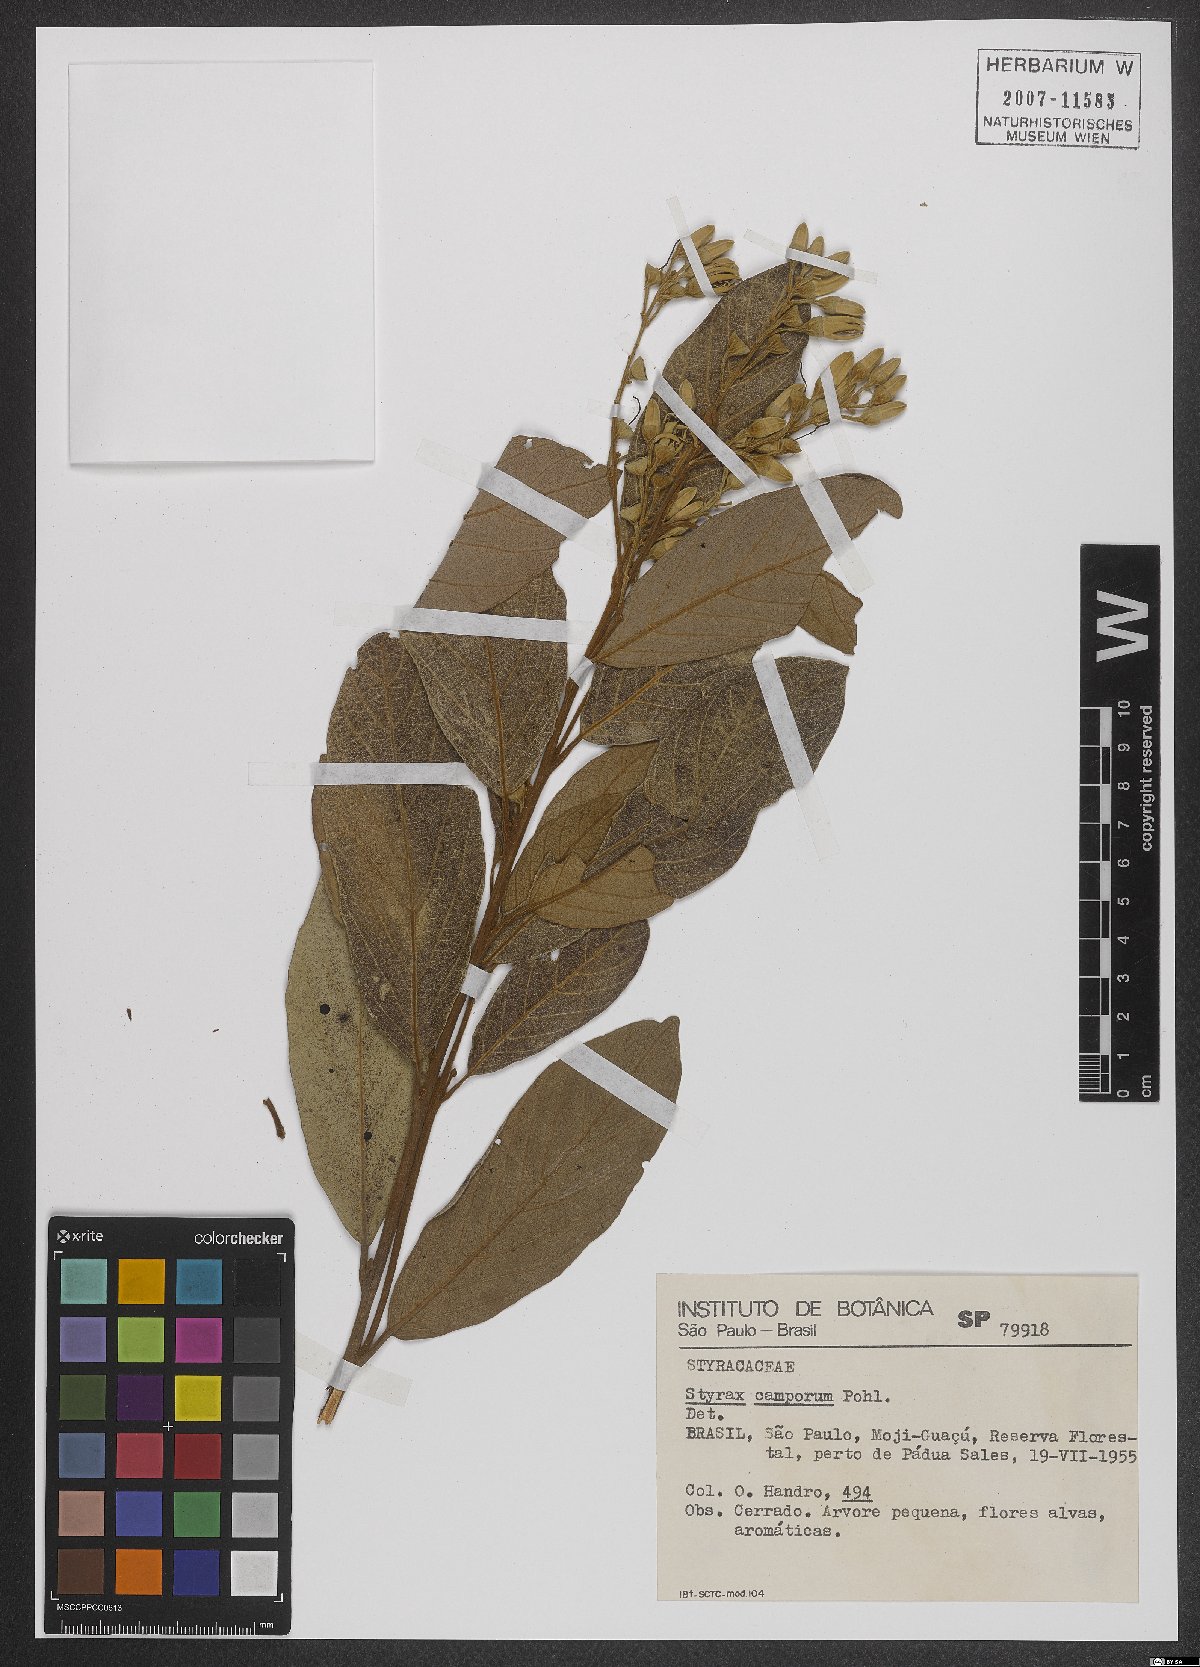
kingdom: Plantae
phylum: Tracheophyta
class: Magnoliopsida
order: Ericales
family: Styracaceae
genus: Styrax
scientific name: Styrax camporum
